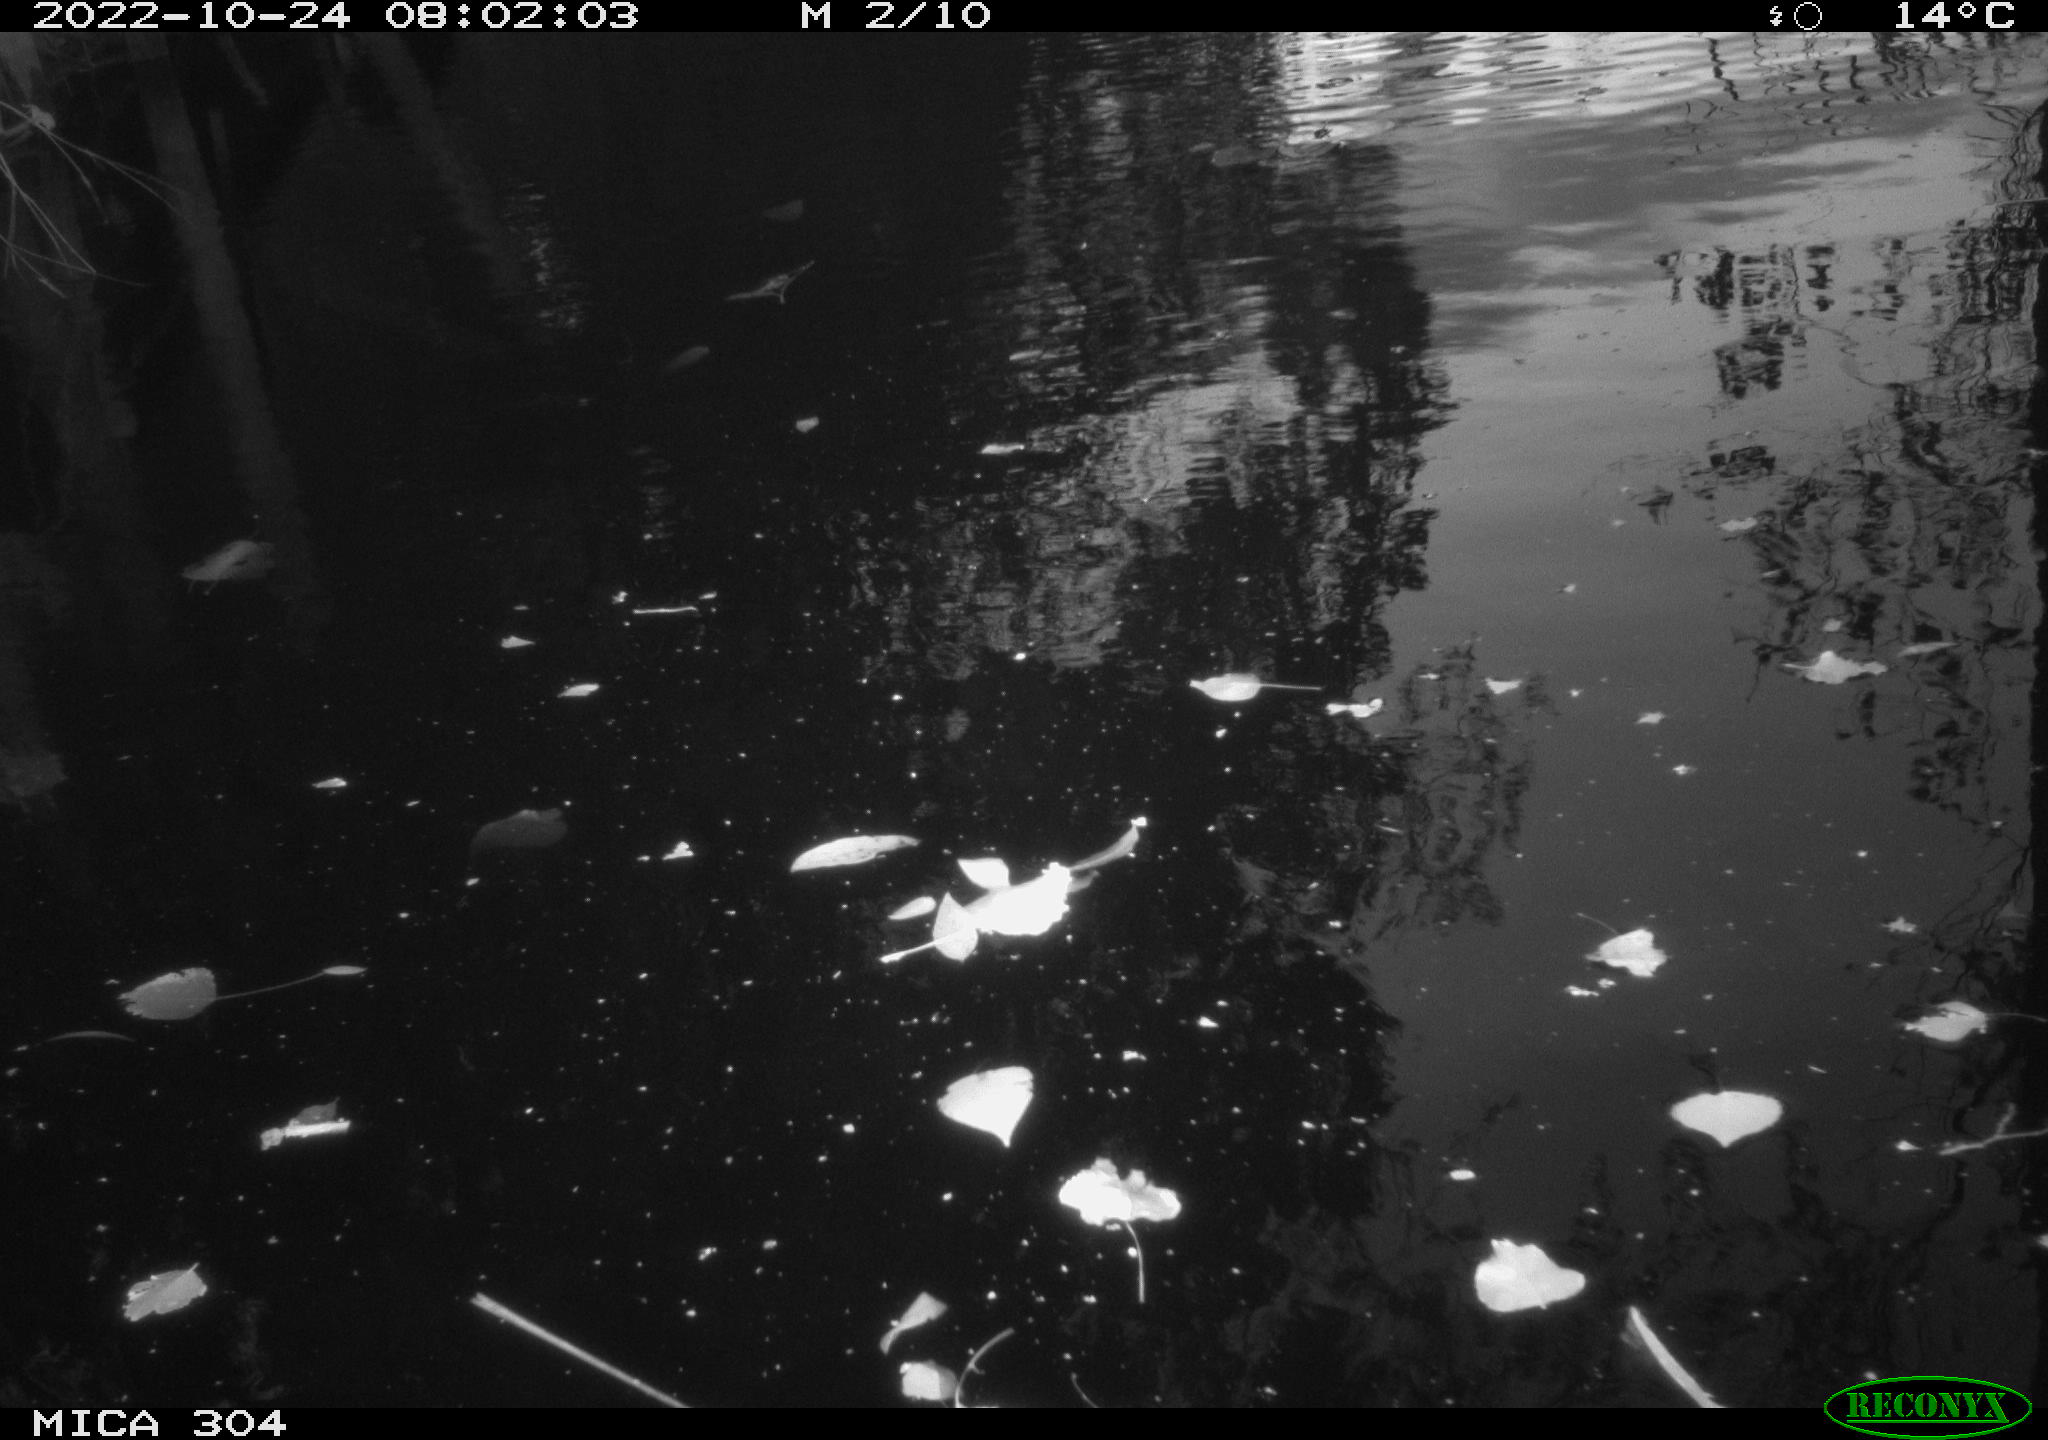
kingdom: Animalia
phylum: Chordata
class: Aves
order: Gruiformes
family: Rallidae
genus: Fulica
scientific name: Fulica atra
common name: Eurasian coot
